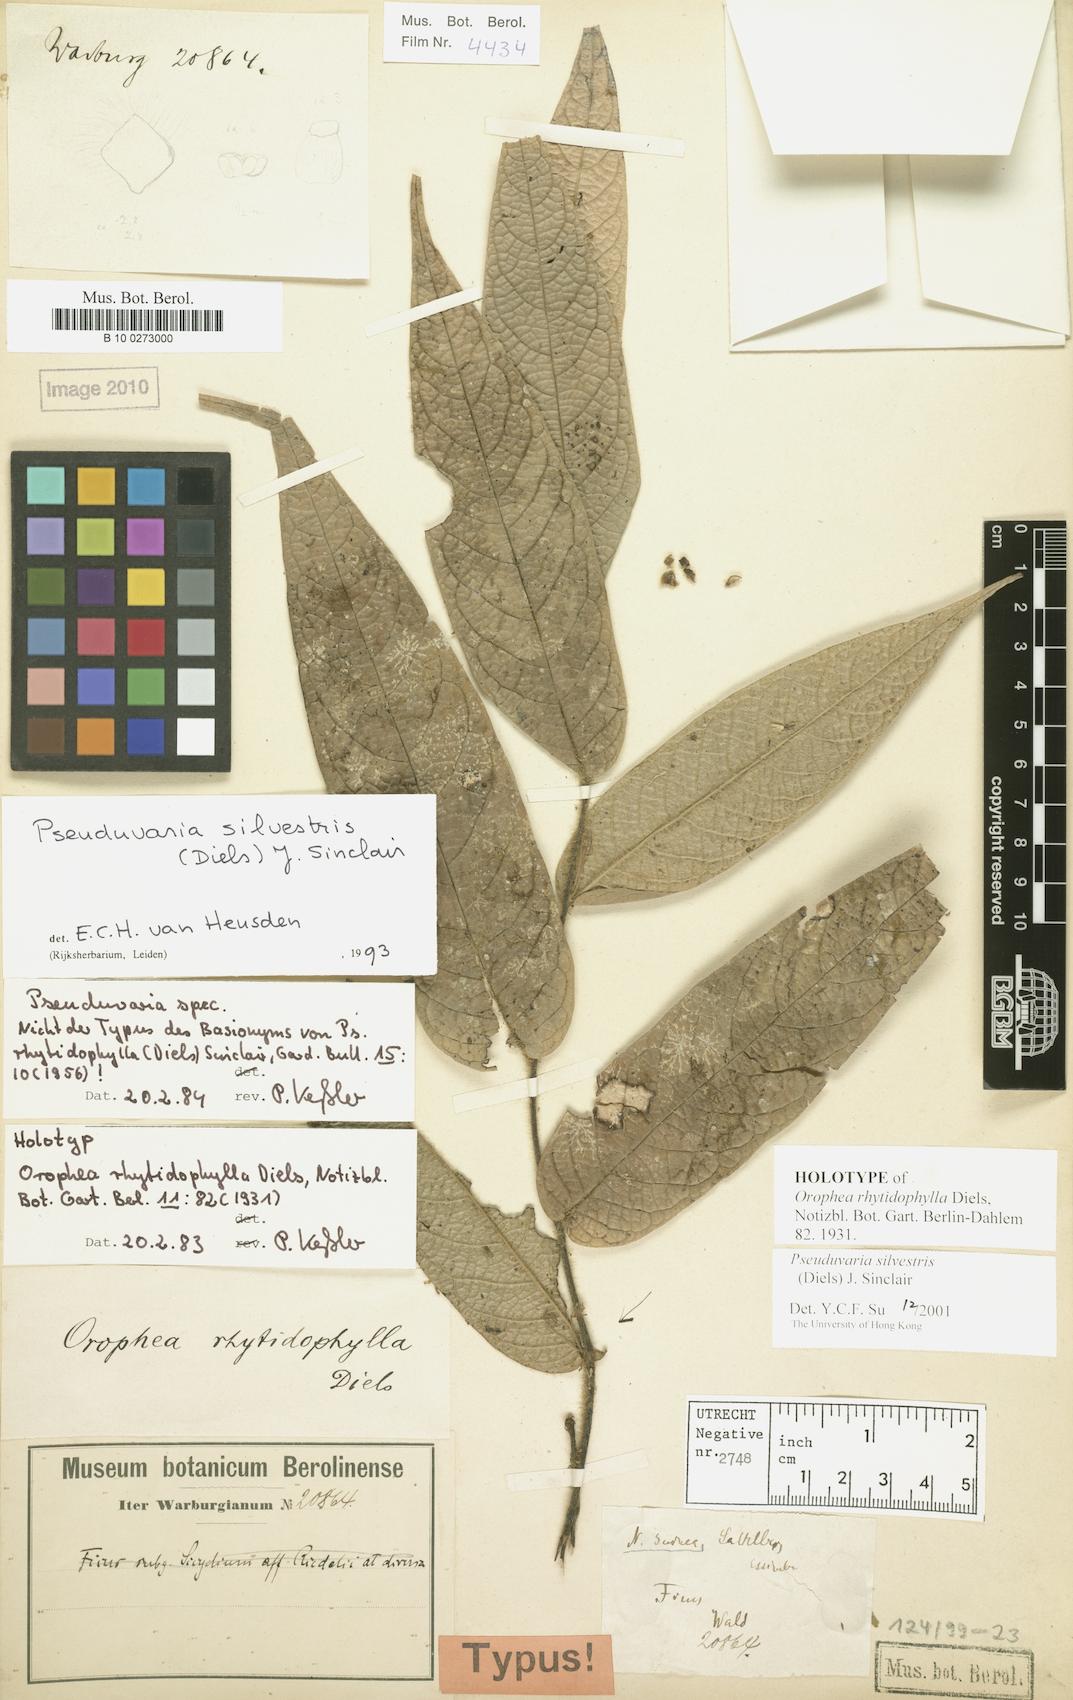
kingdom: Plantae
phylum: Tracheophyta
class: Magnoliopsida
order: Magnoliales
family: Annonaceae
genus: Pseuduvaria
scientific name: Pseuduvaria silvestris
